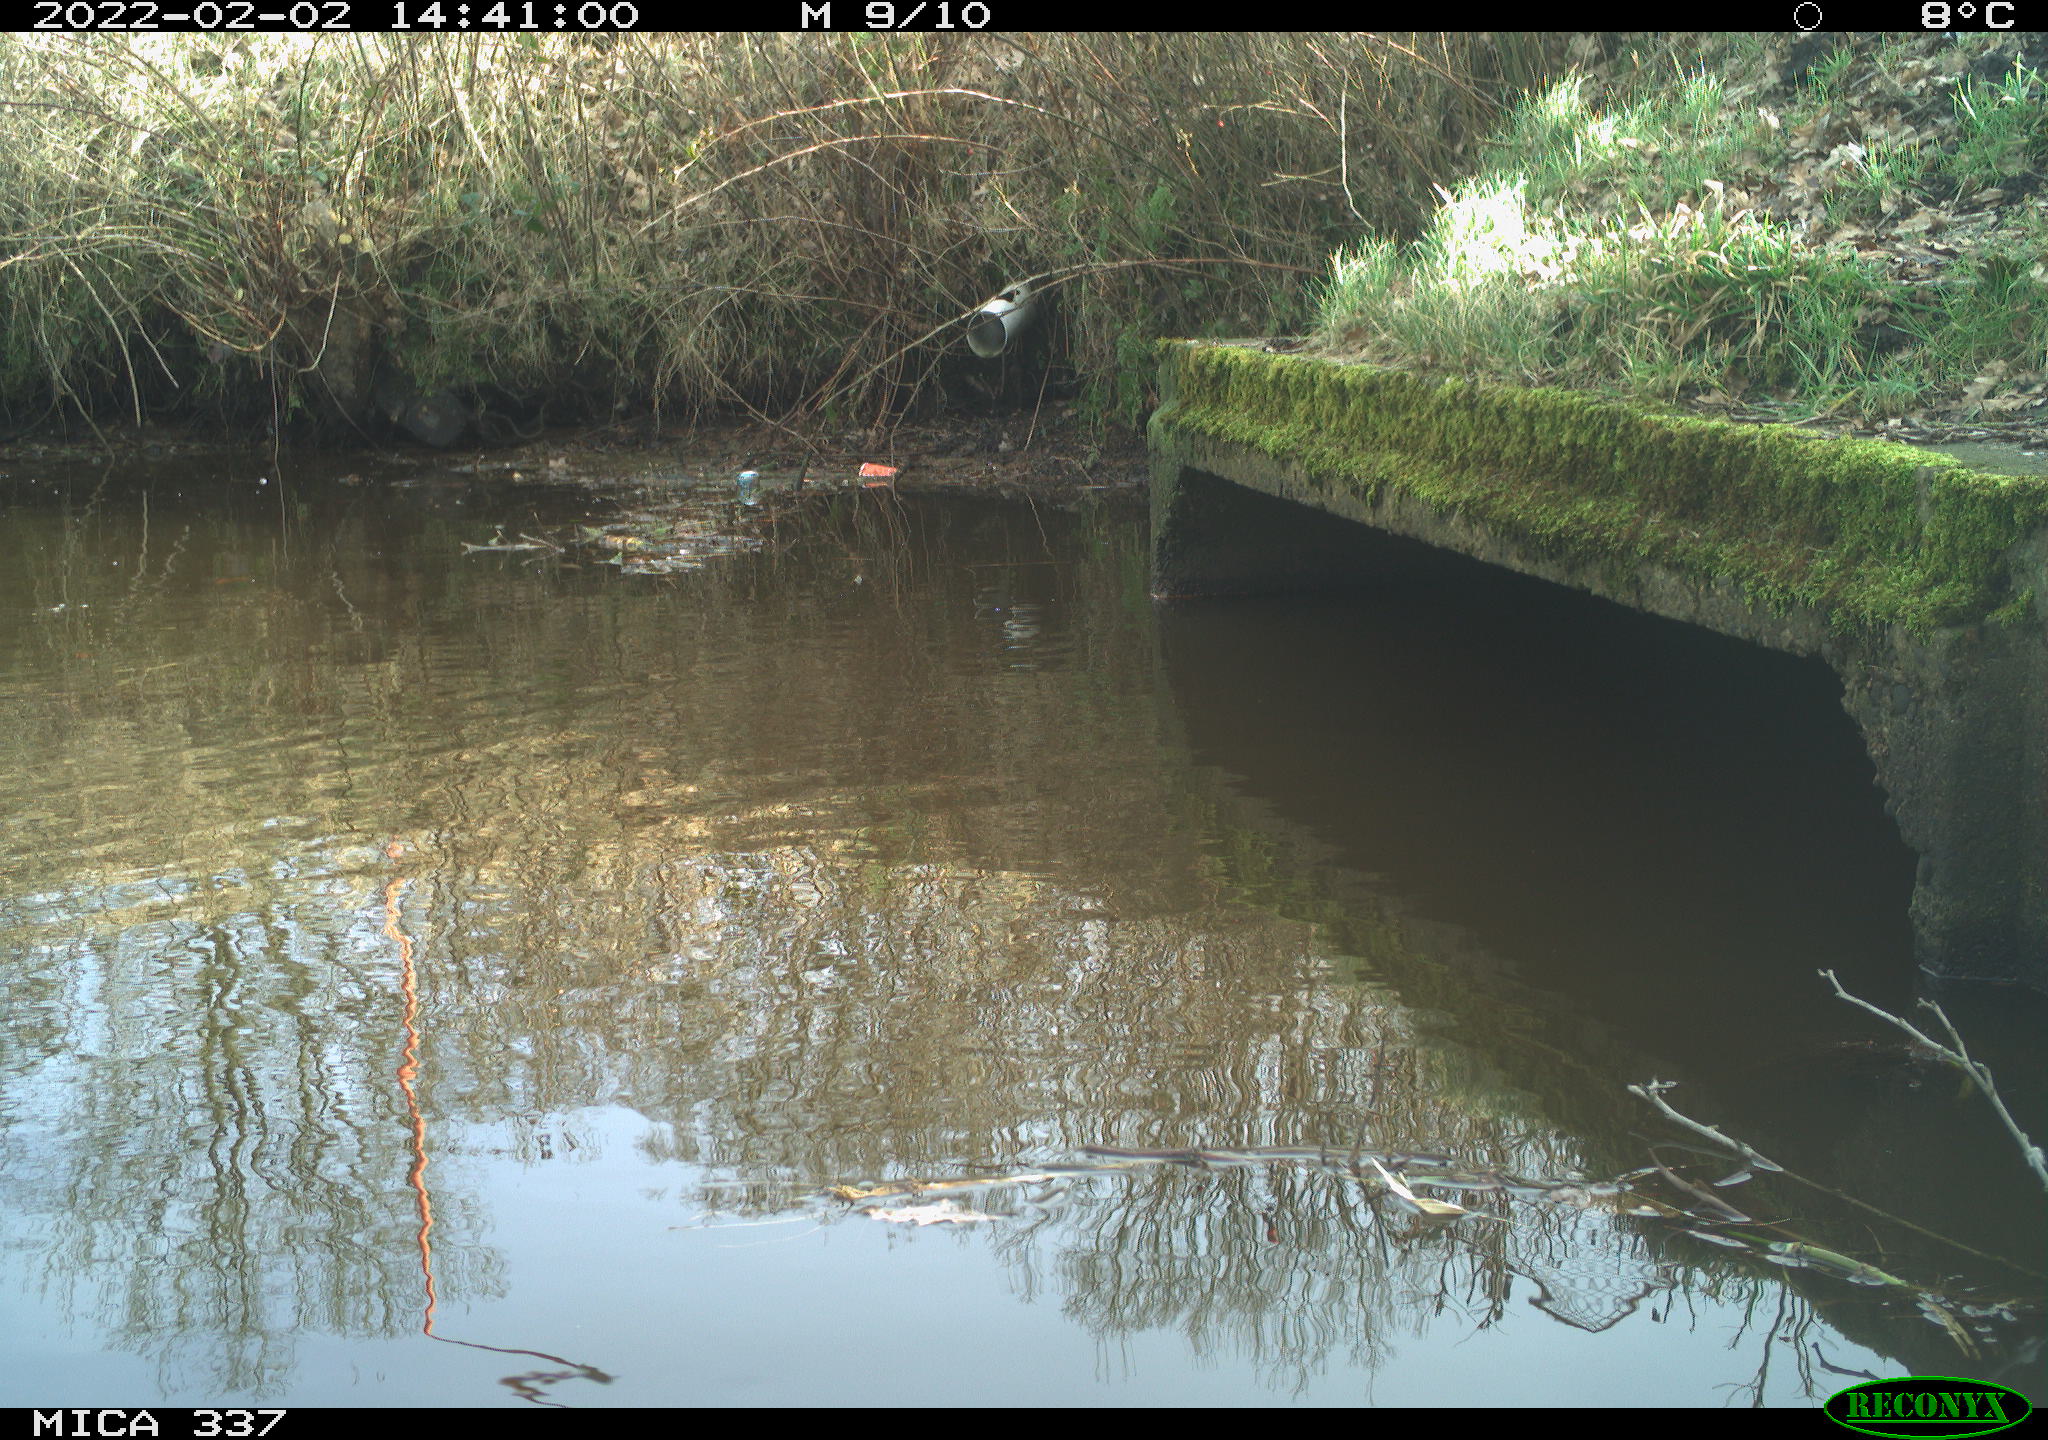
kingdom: Animalia
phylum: Chordata
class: Aves
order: Anseriformes
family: Anatidae
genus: Anas
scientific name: Anas platyrhynchos
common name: Mallard
